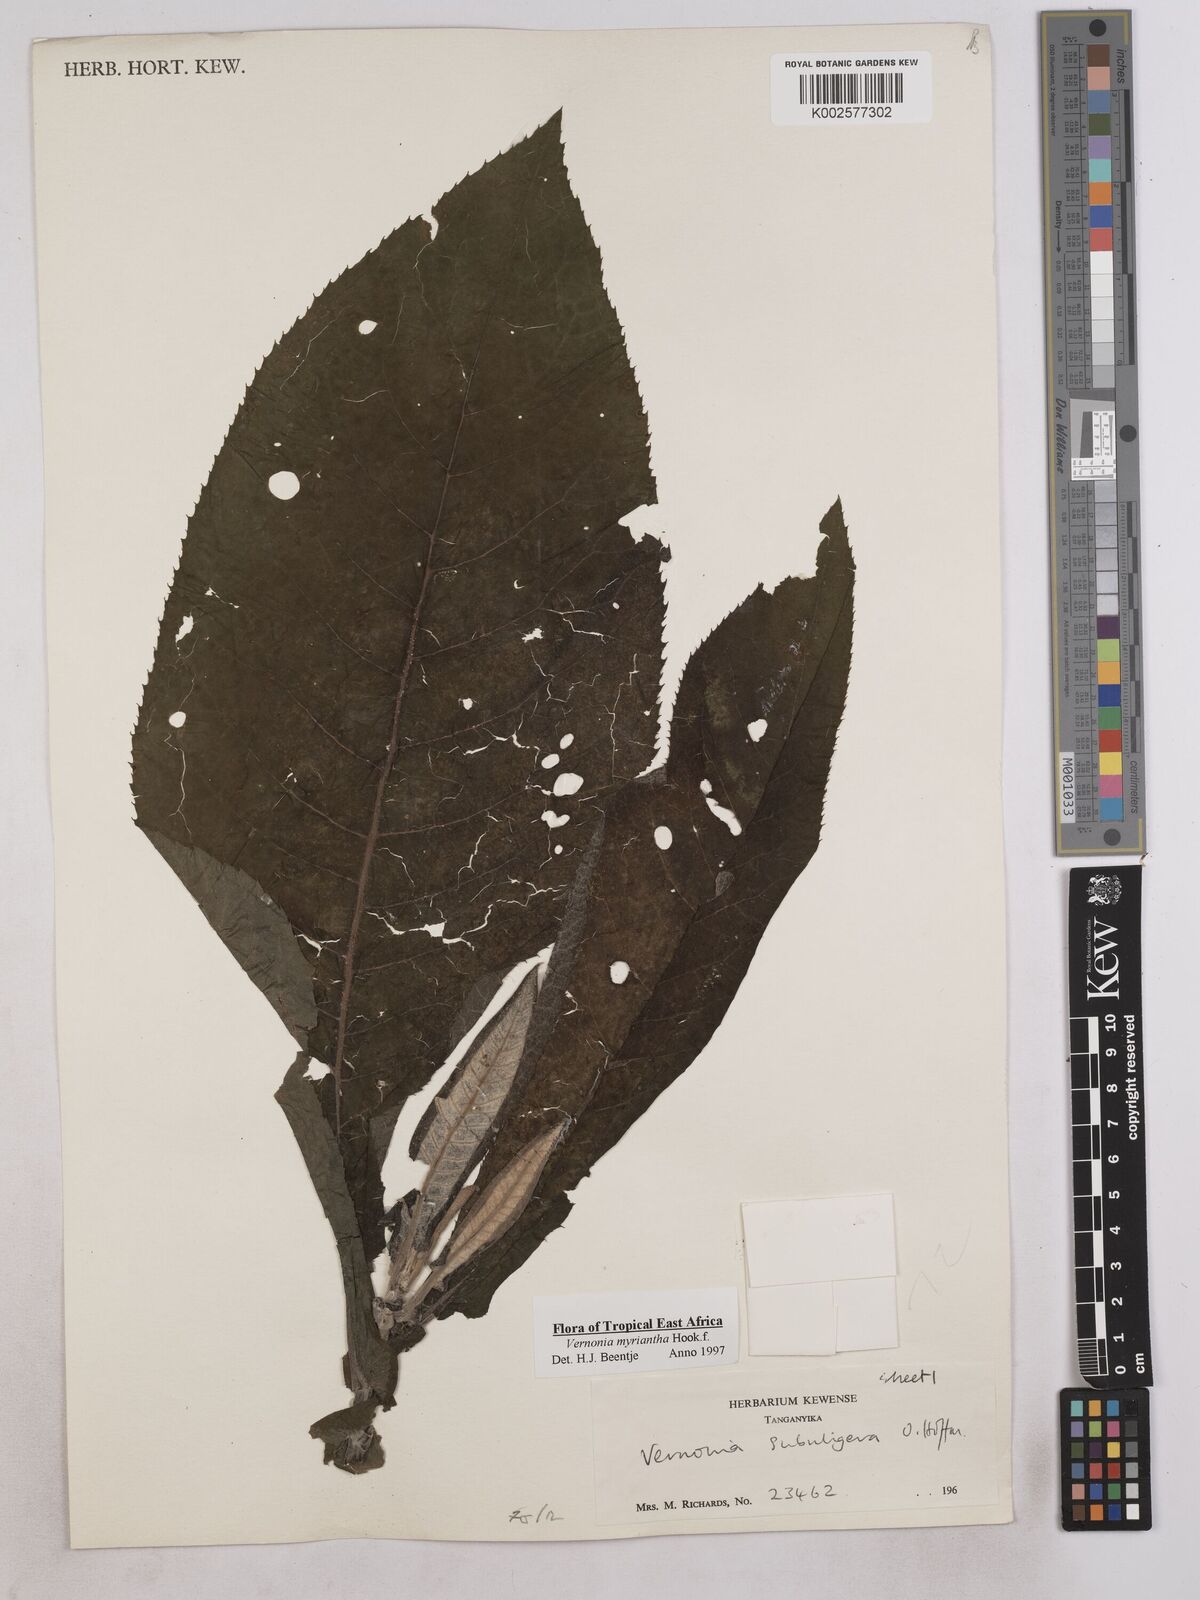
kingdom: Plantae
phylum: Tracheophyta
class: Magnoliopsida
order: Asterales
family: Asteraceae
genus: Gymnanthemum
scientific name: Gymnanthemum myrianthum
